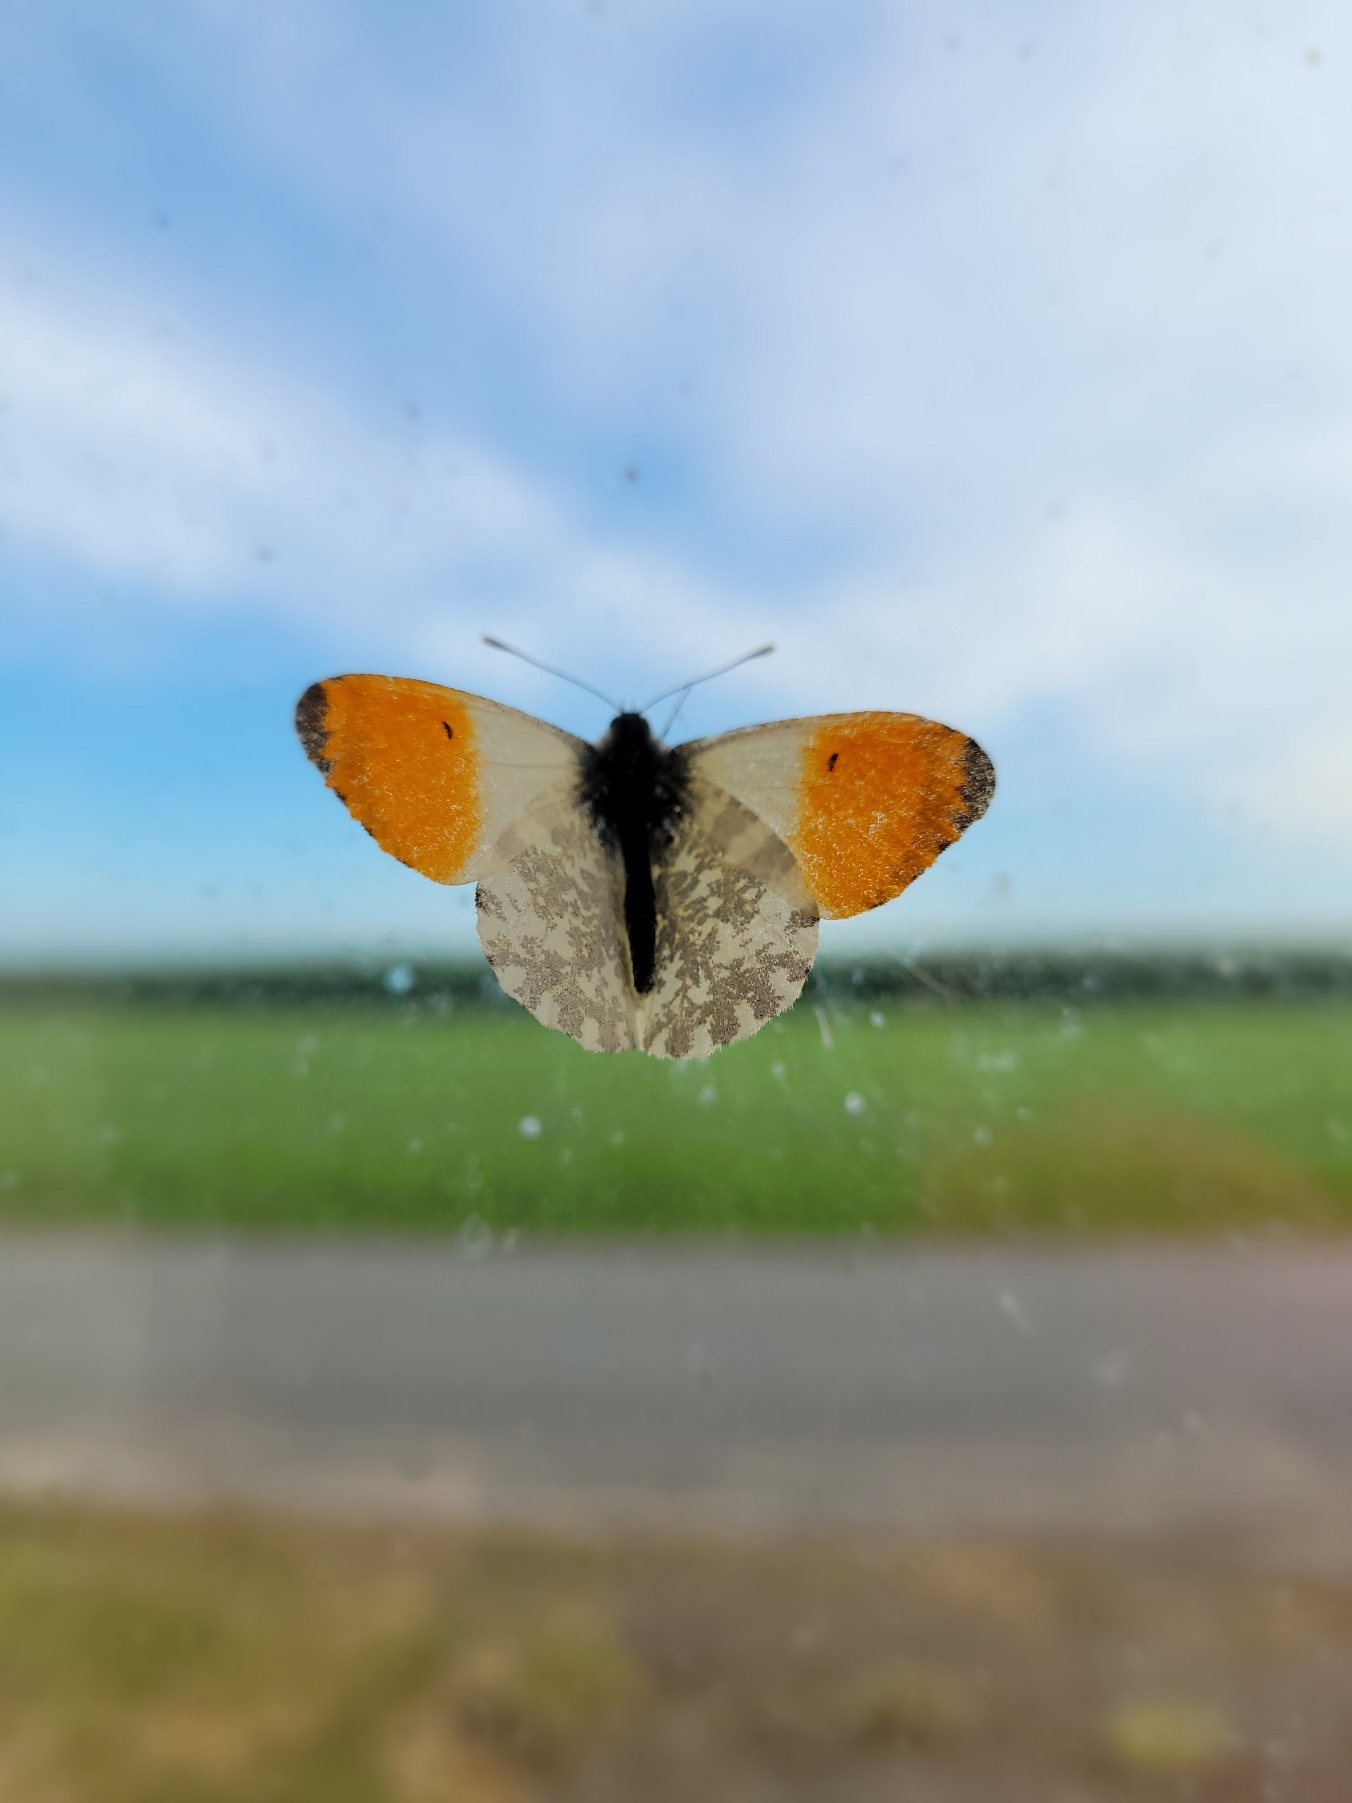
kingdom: Animalia
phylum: Arthropoda
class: Insecta
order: Lepidoptera
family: Pieridae
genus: Anthocharis
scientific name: Anthocharis cardamines
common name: Aurora
